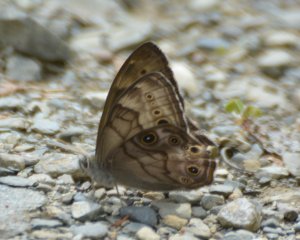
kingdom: Animalia
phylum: Arthropoda
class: Insecta
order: Lepidoptera
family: Nymphalidae
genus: Lethe
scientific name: Lethe anthedon
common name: Northern Pearly-Eye
